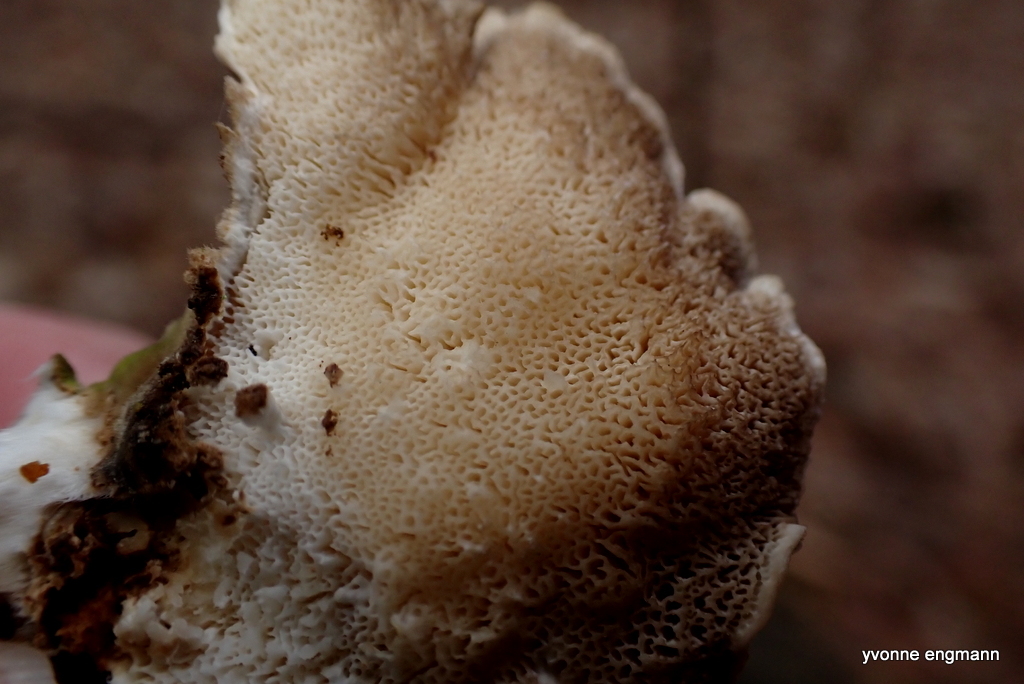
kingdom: Fungi
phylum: Basidiomycota
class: Agaricomycetes
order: Polyporales
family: Polyporaceae
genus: Trametes
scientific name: Trametes versicolor
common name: broget læderporesvamp
